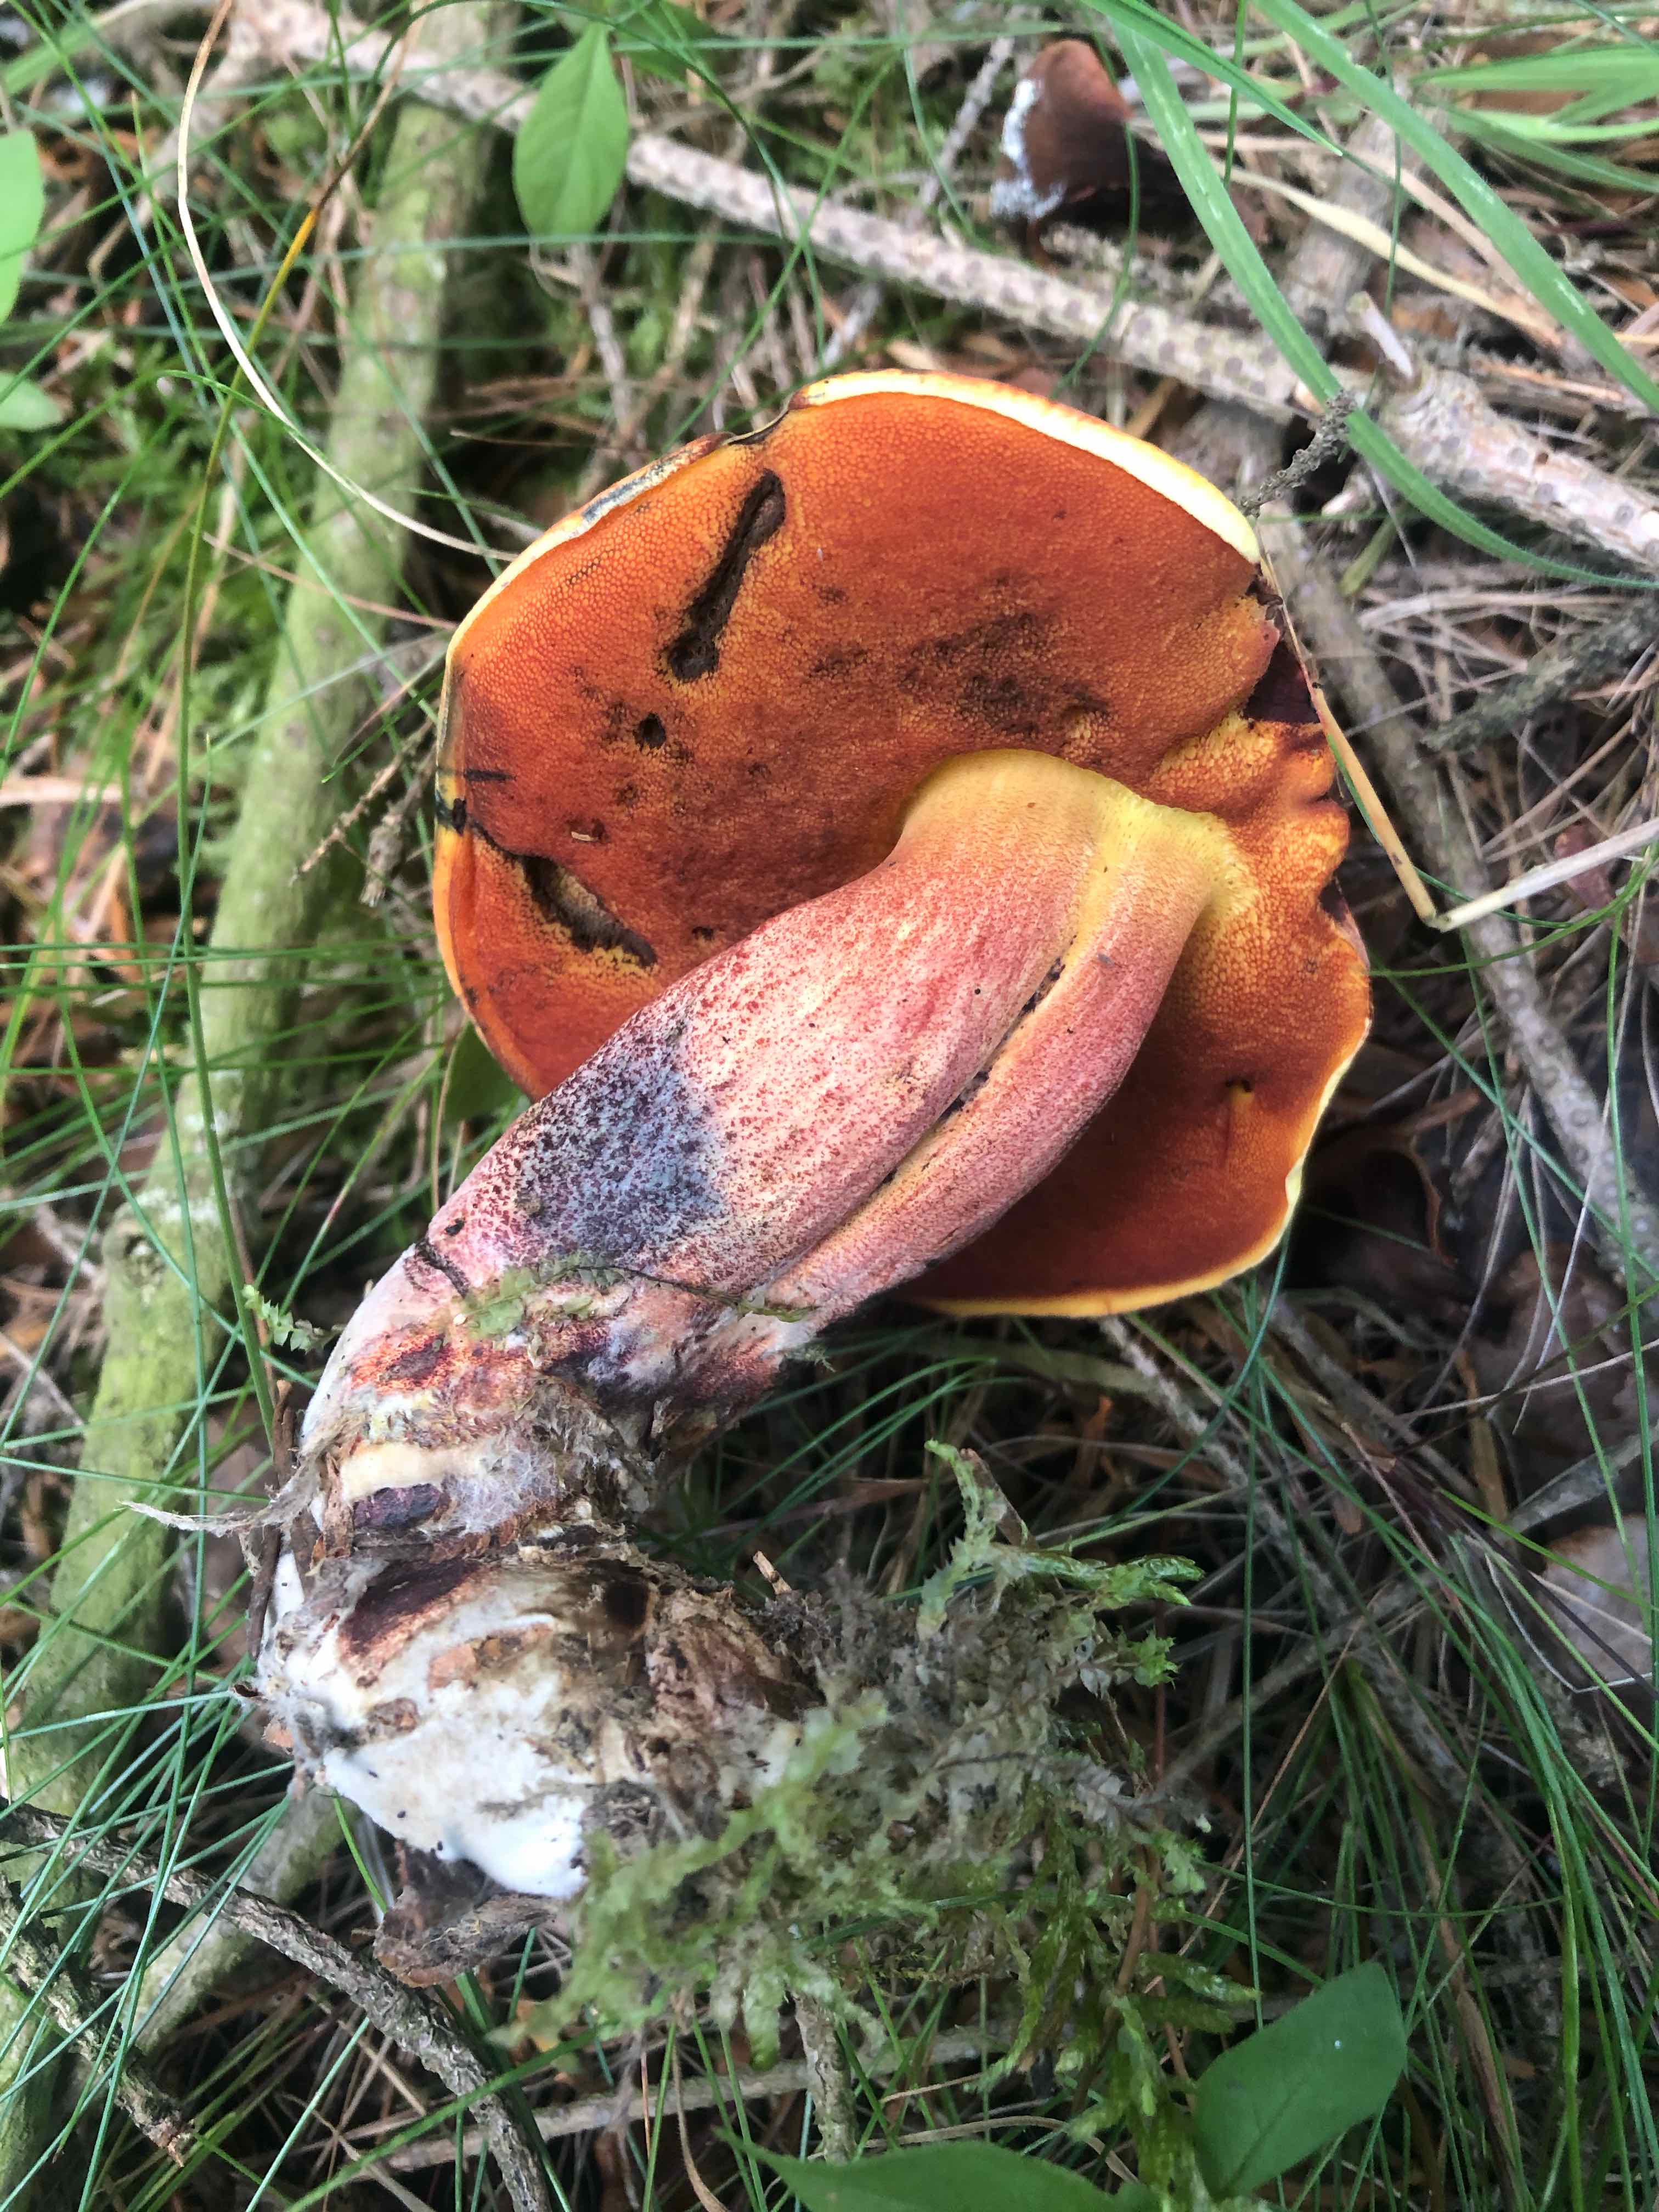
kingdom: Fungi
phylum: Basidiomycota
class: Agaricomycetes
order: Boletales
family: Boletaceae
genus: Neoboletus
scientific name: Neoboletus erythropus
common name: punktstokket indigorørhat
